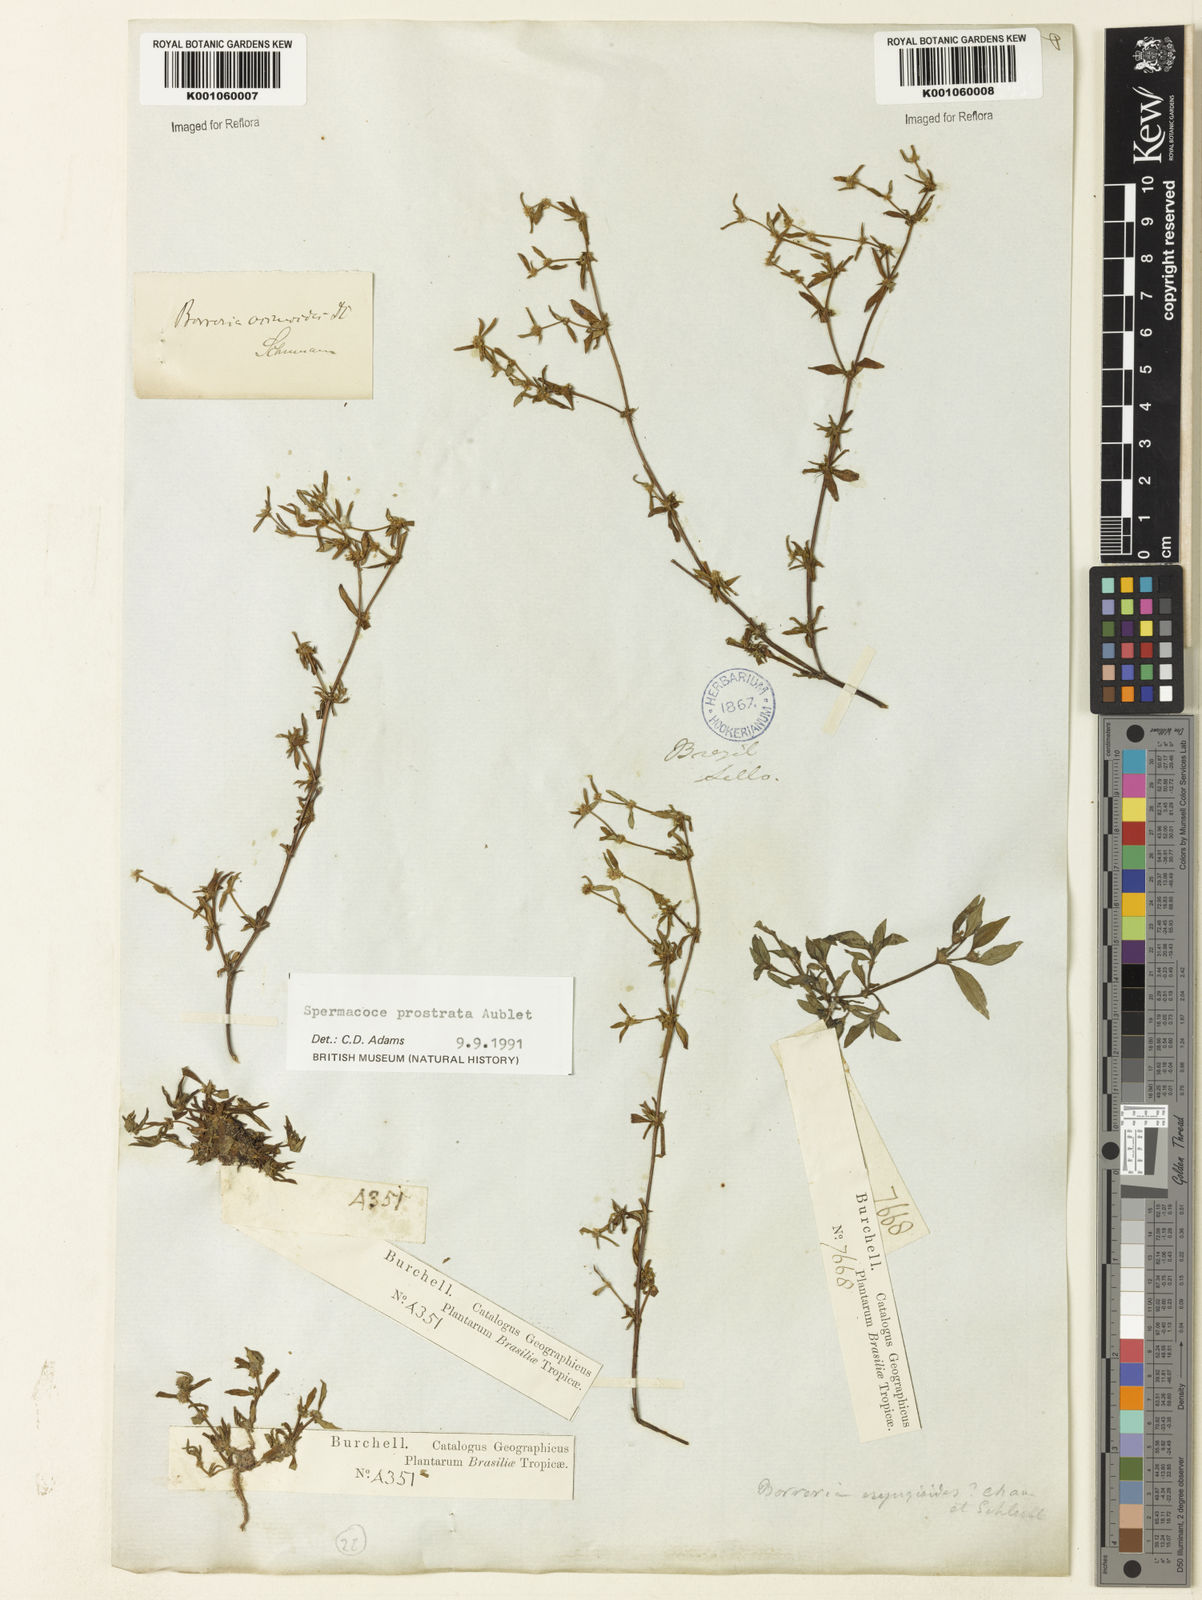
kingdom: Plantae
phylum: Tracheophyta
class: Magnoliopsida
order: Gentianales
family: Rubiaceae
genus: Spermacoce
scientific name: Spermacoce prostrata
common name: Prostrate false buttonweed
